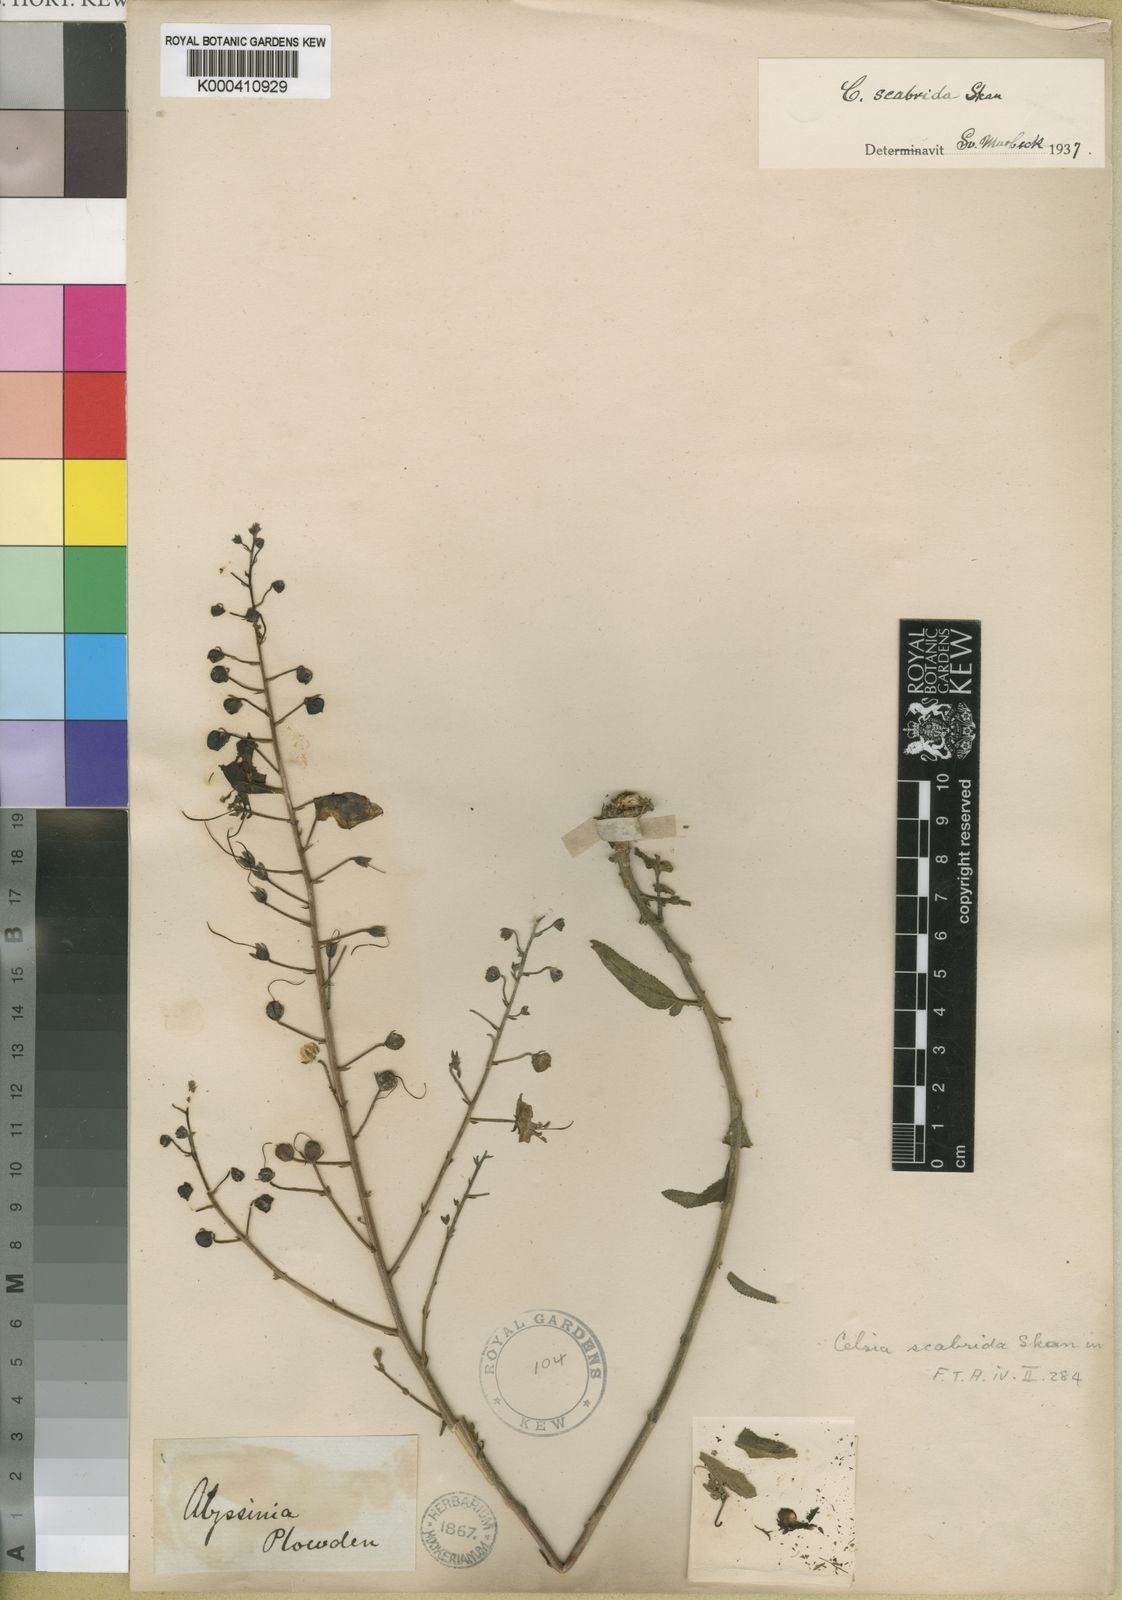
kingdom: Plantae
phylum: Tracheophyta
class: Magnoliopsida
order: Lamiales
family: Scrophulariaceae
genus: Verbascum
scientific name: Verbascum scabridum
